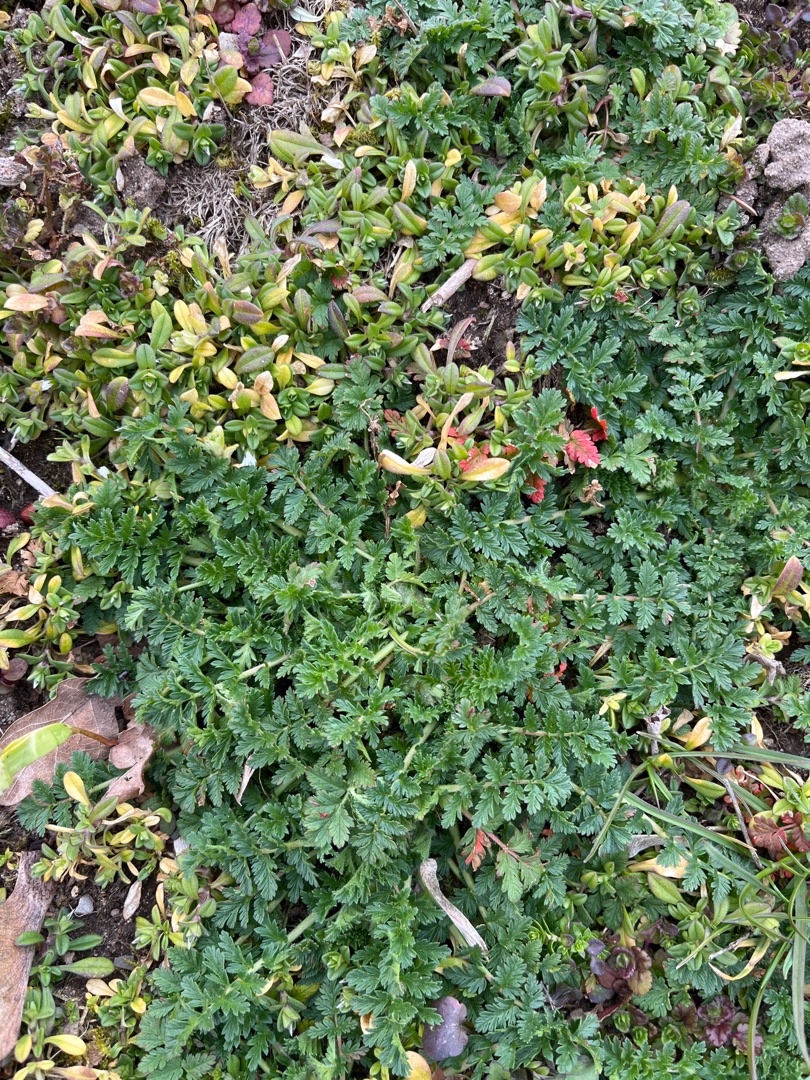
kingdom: Plantae
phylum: Tracheophyta
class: Magnoliopsida
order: Geraniales
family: Geraniaceae
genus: Erodium
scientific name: Erodium cicutarium
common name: Hejrenæb
